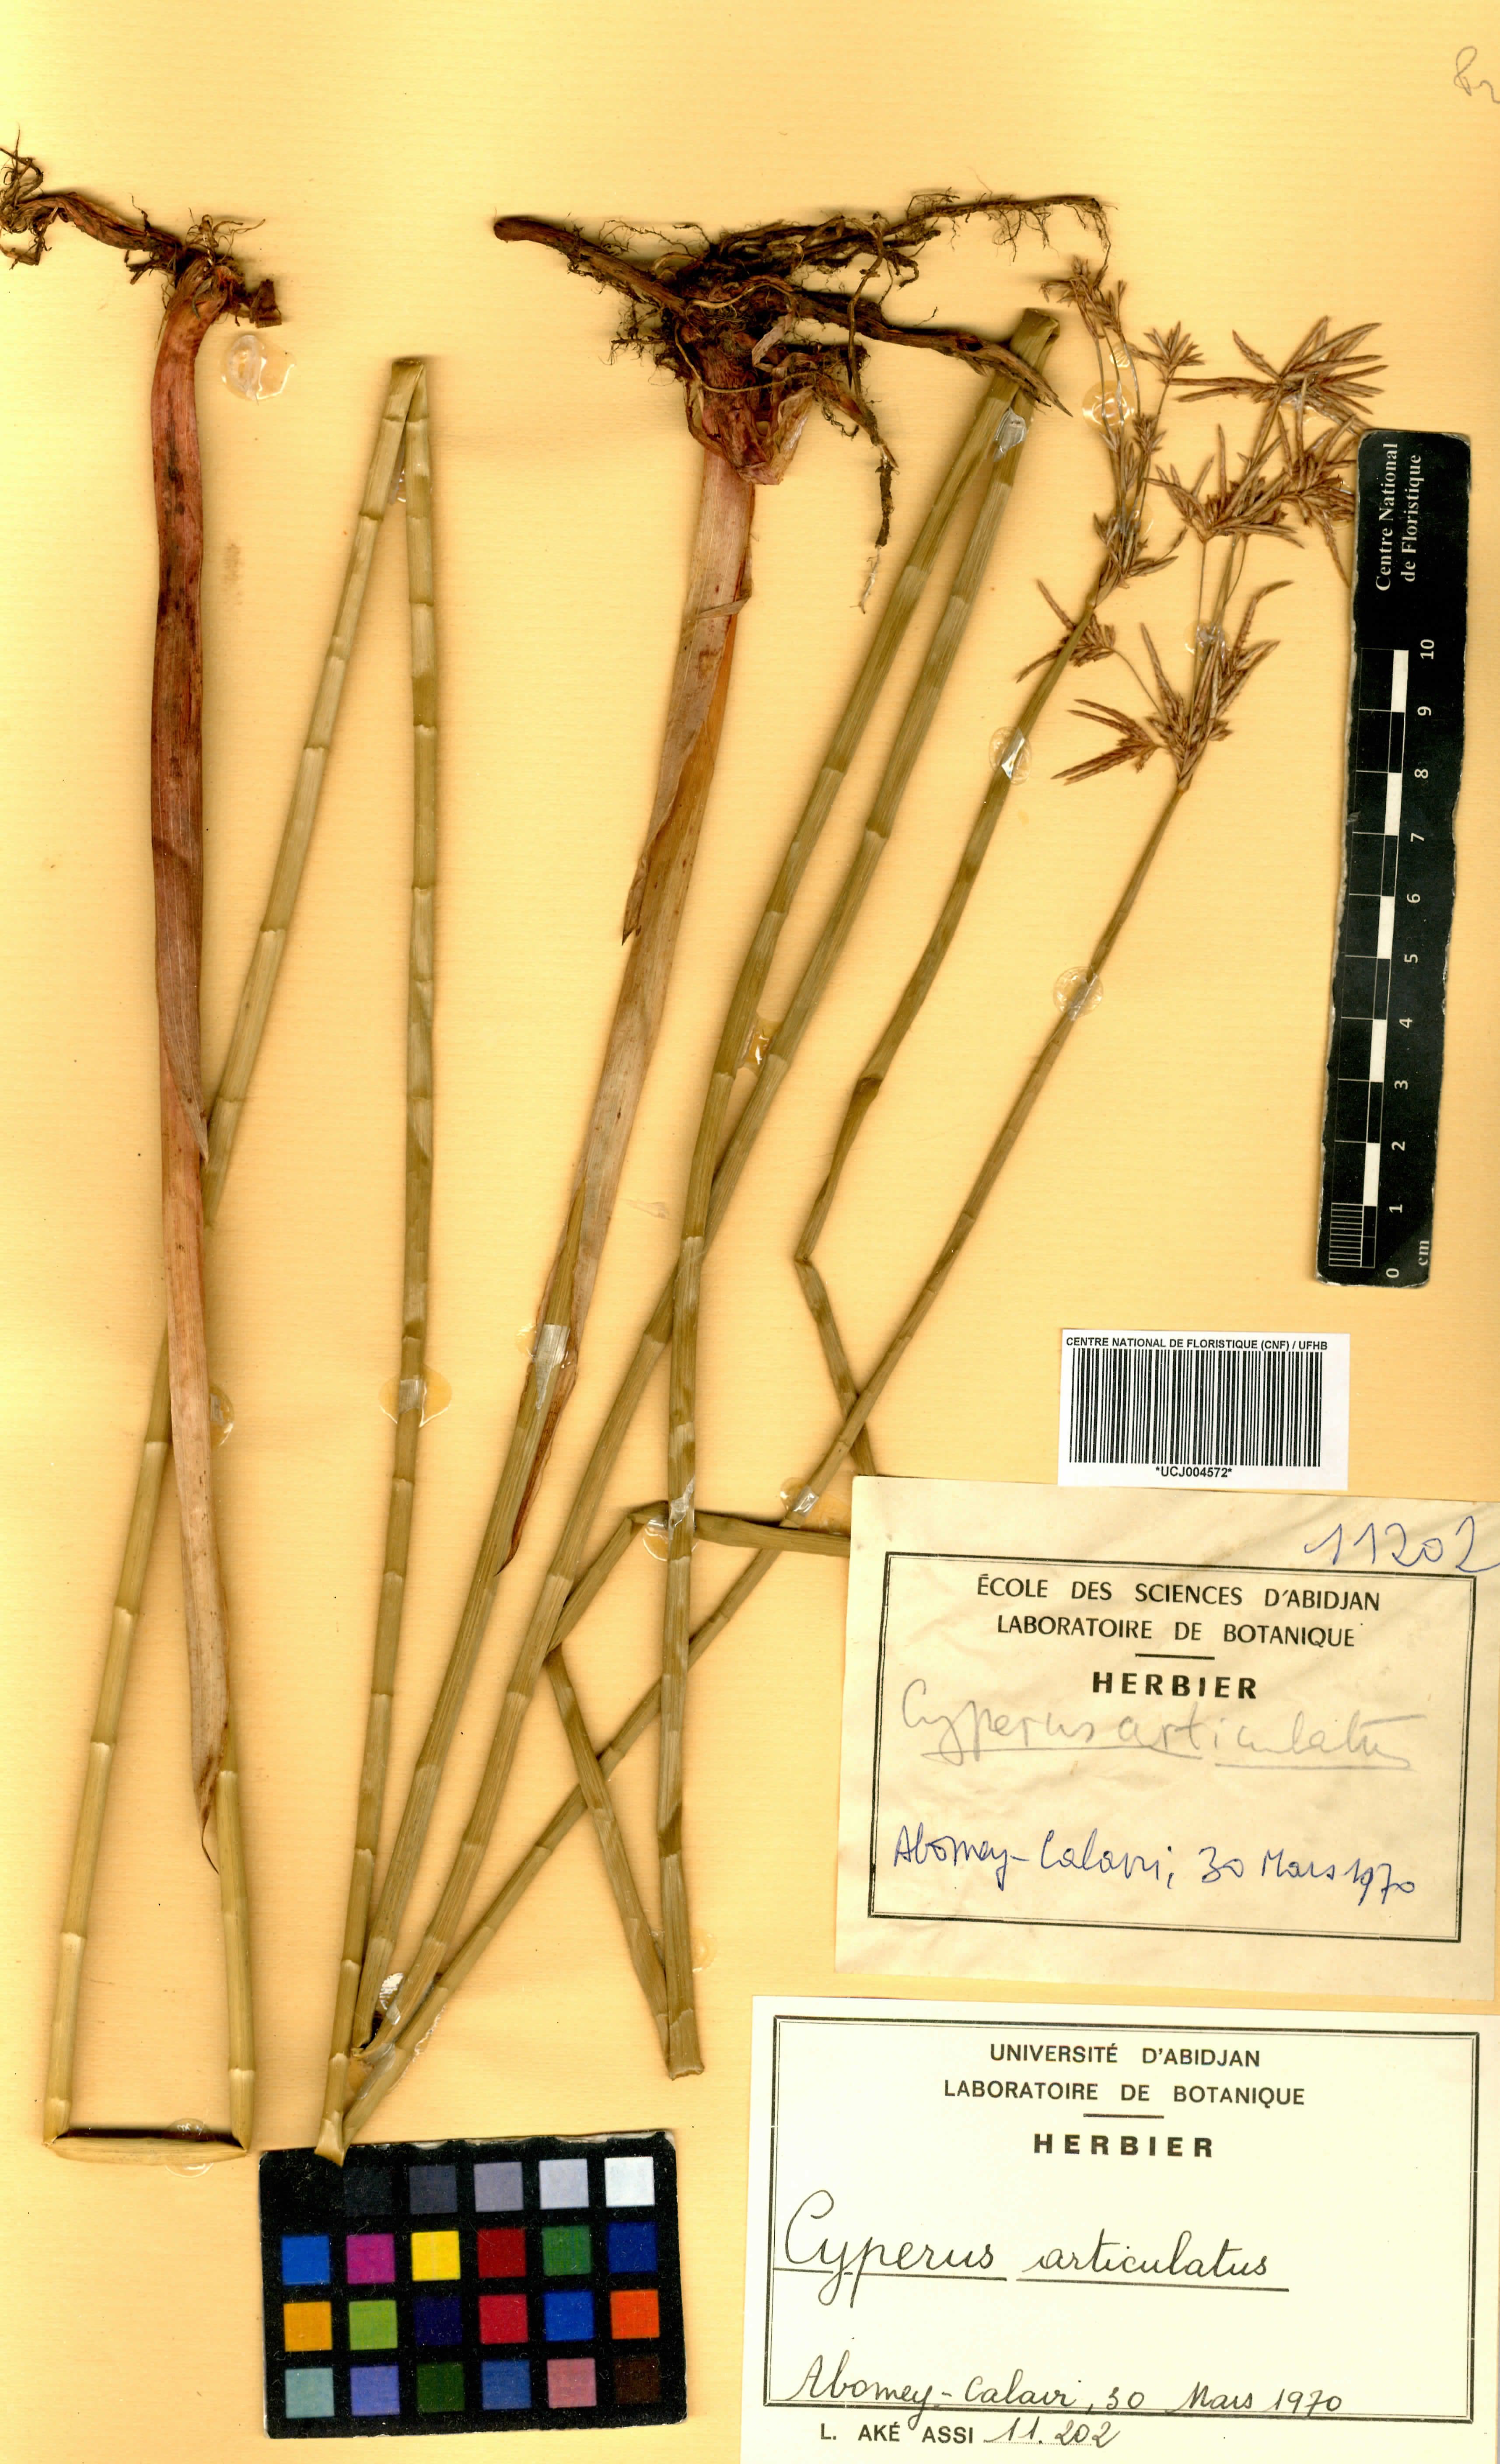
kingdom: Plantae
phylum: Tracheophyta
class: Liliopsida
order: Poales
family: Cyperaceae
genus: Cyperus
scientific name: Cyperus articulatus
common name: Jointed flatsedge
